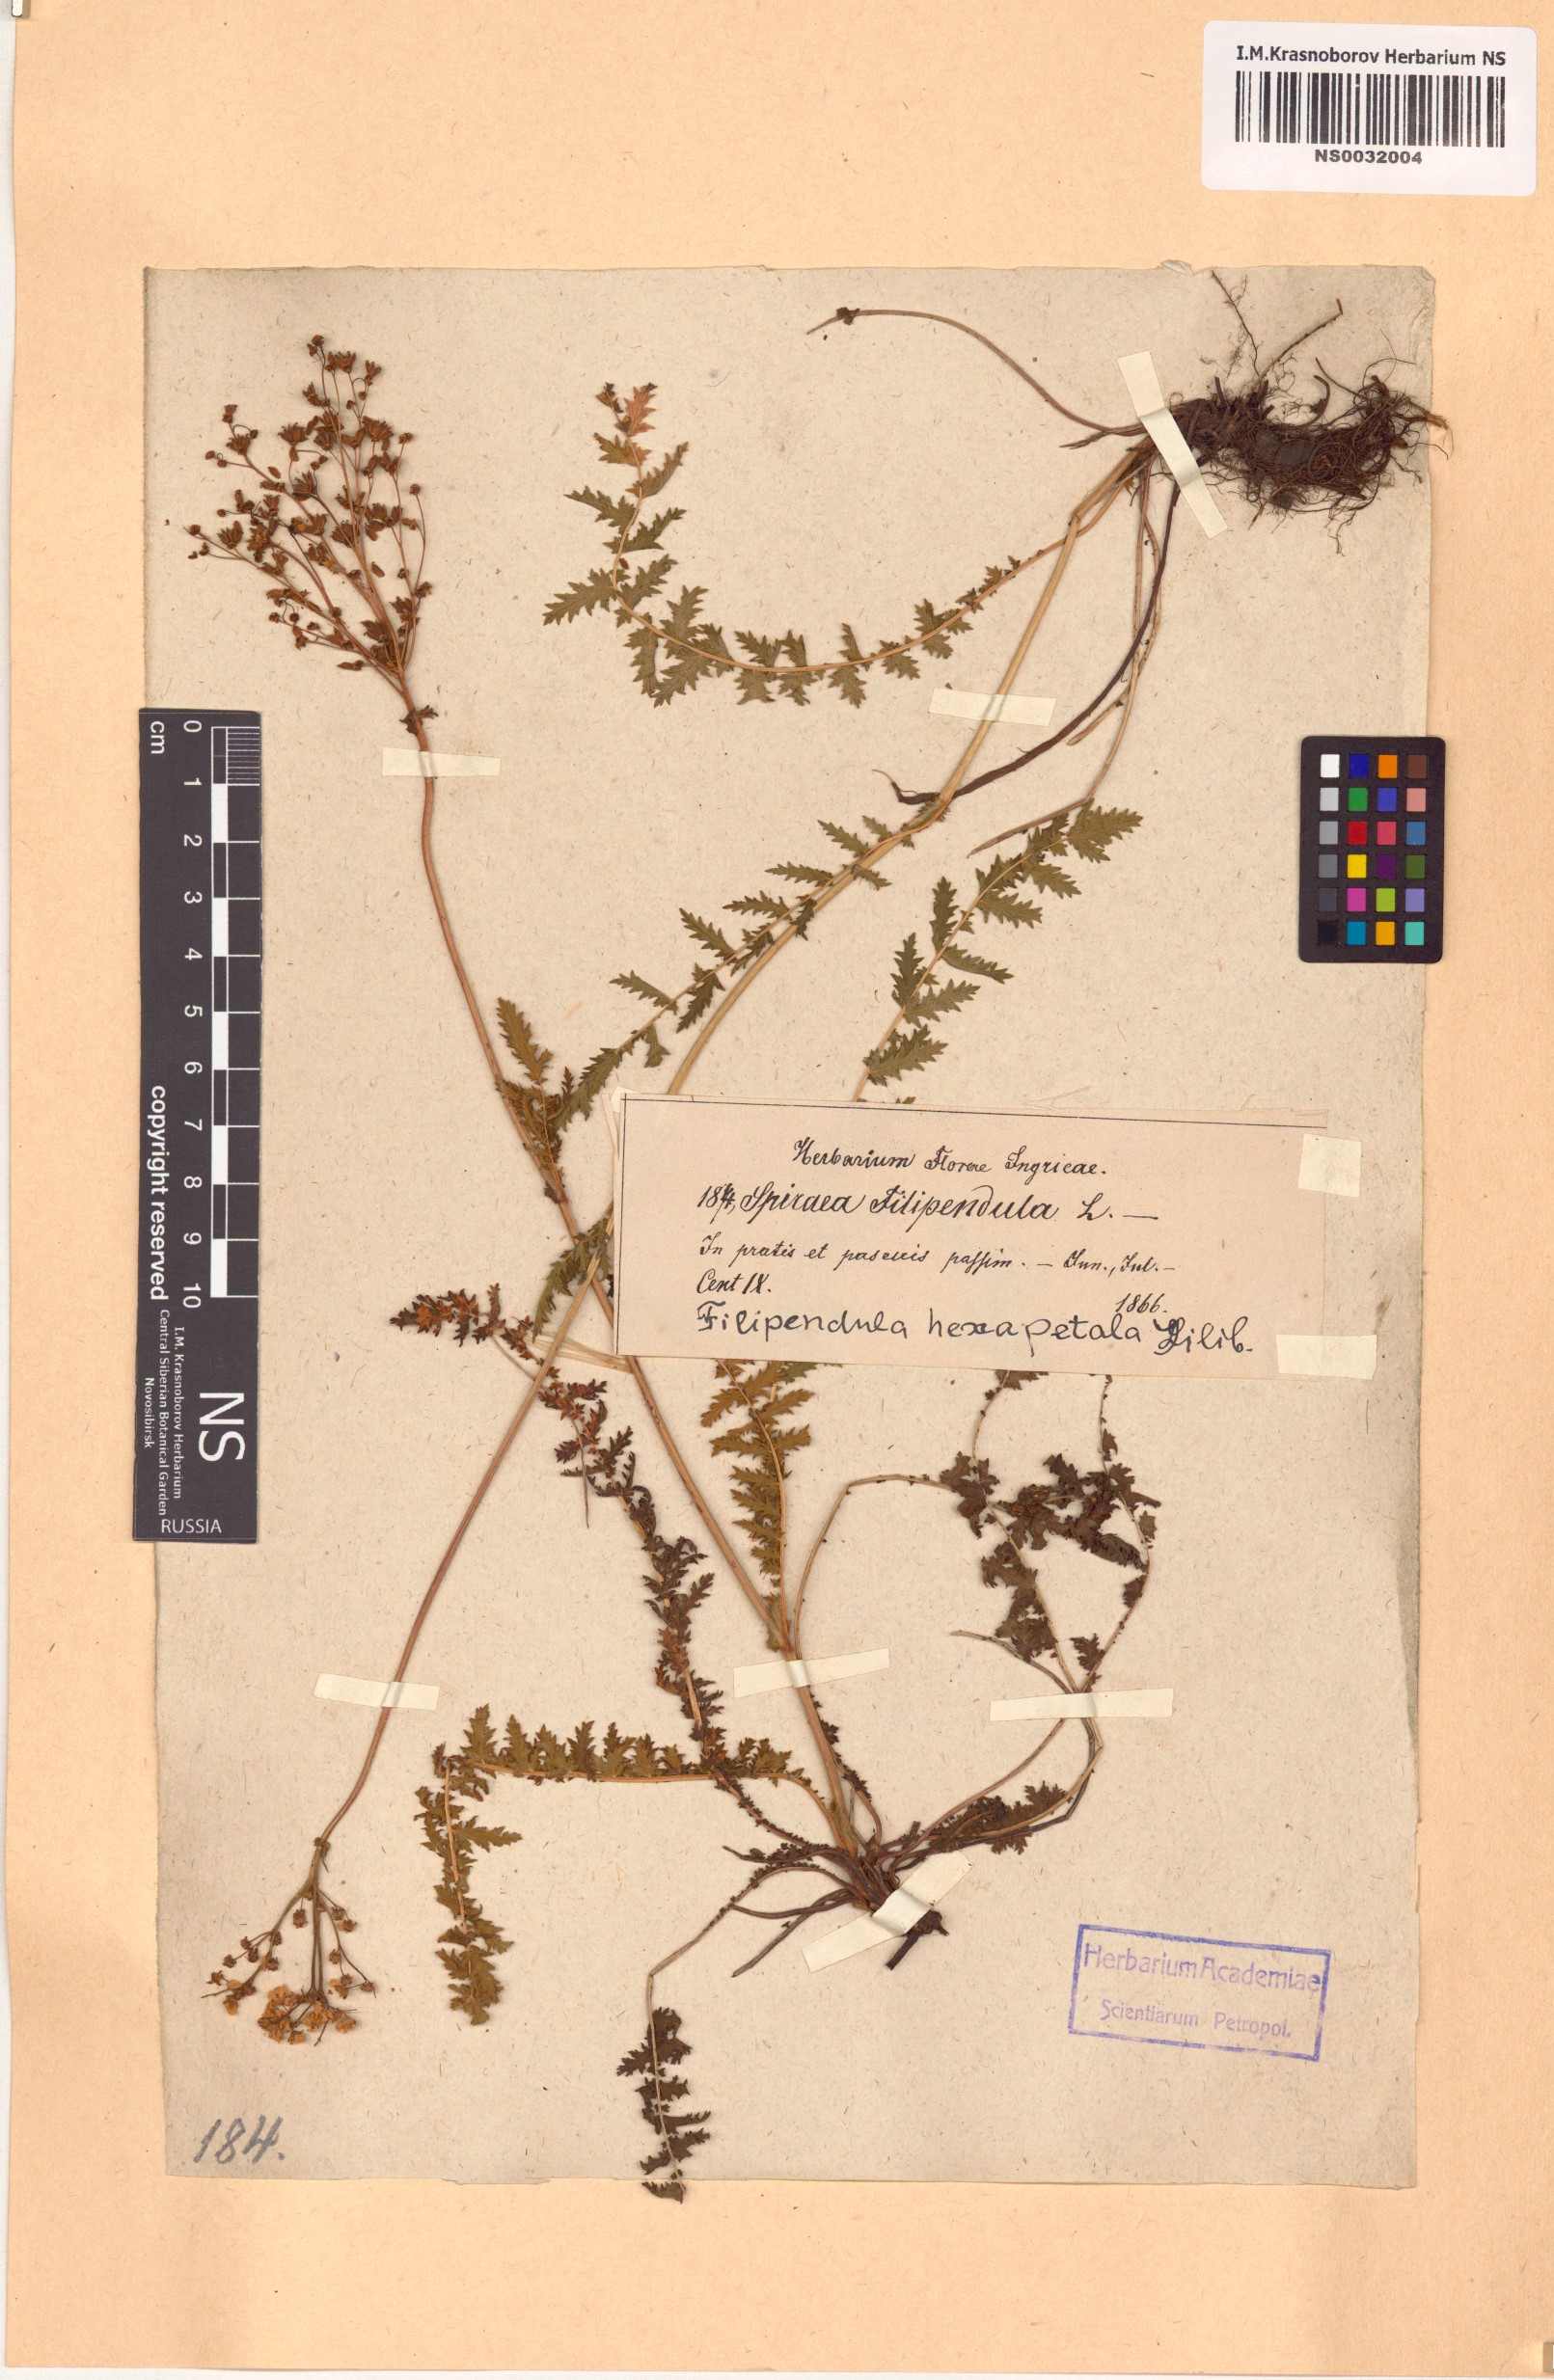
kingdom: Plantae
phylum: Tracheophyta
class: Magnoliopsida
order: Rosales
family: Rosaceae
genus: Filipendula
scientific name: Filipendula vulgaris
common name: Dropwort
